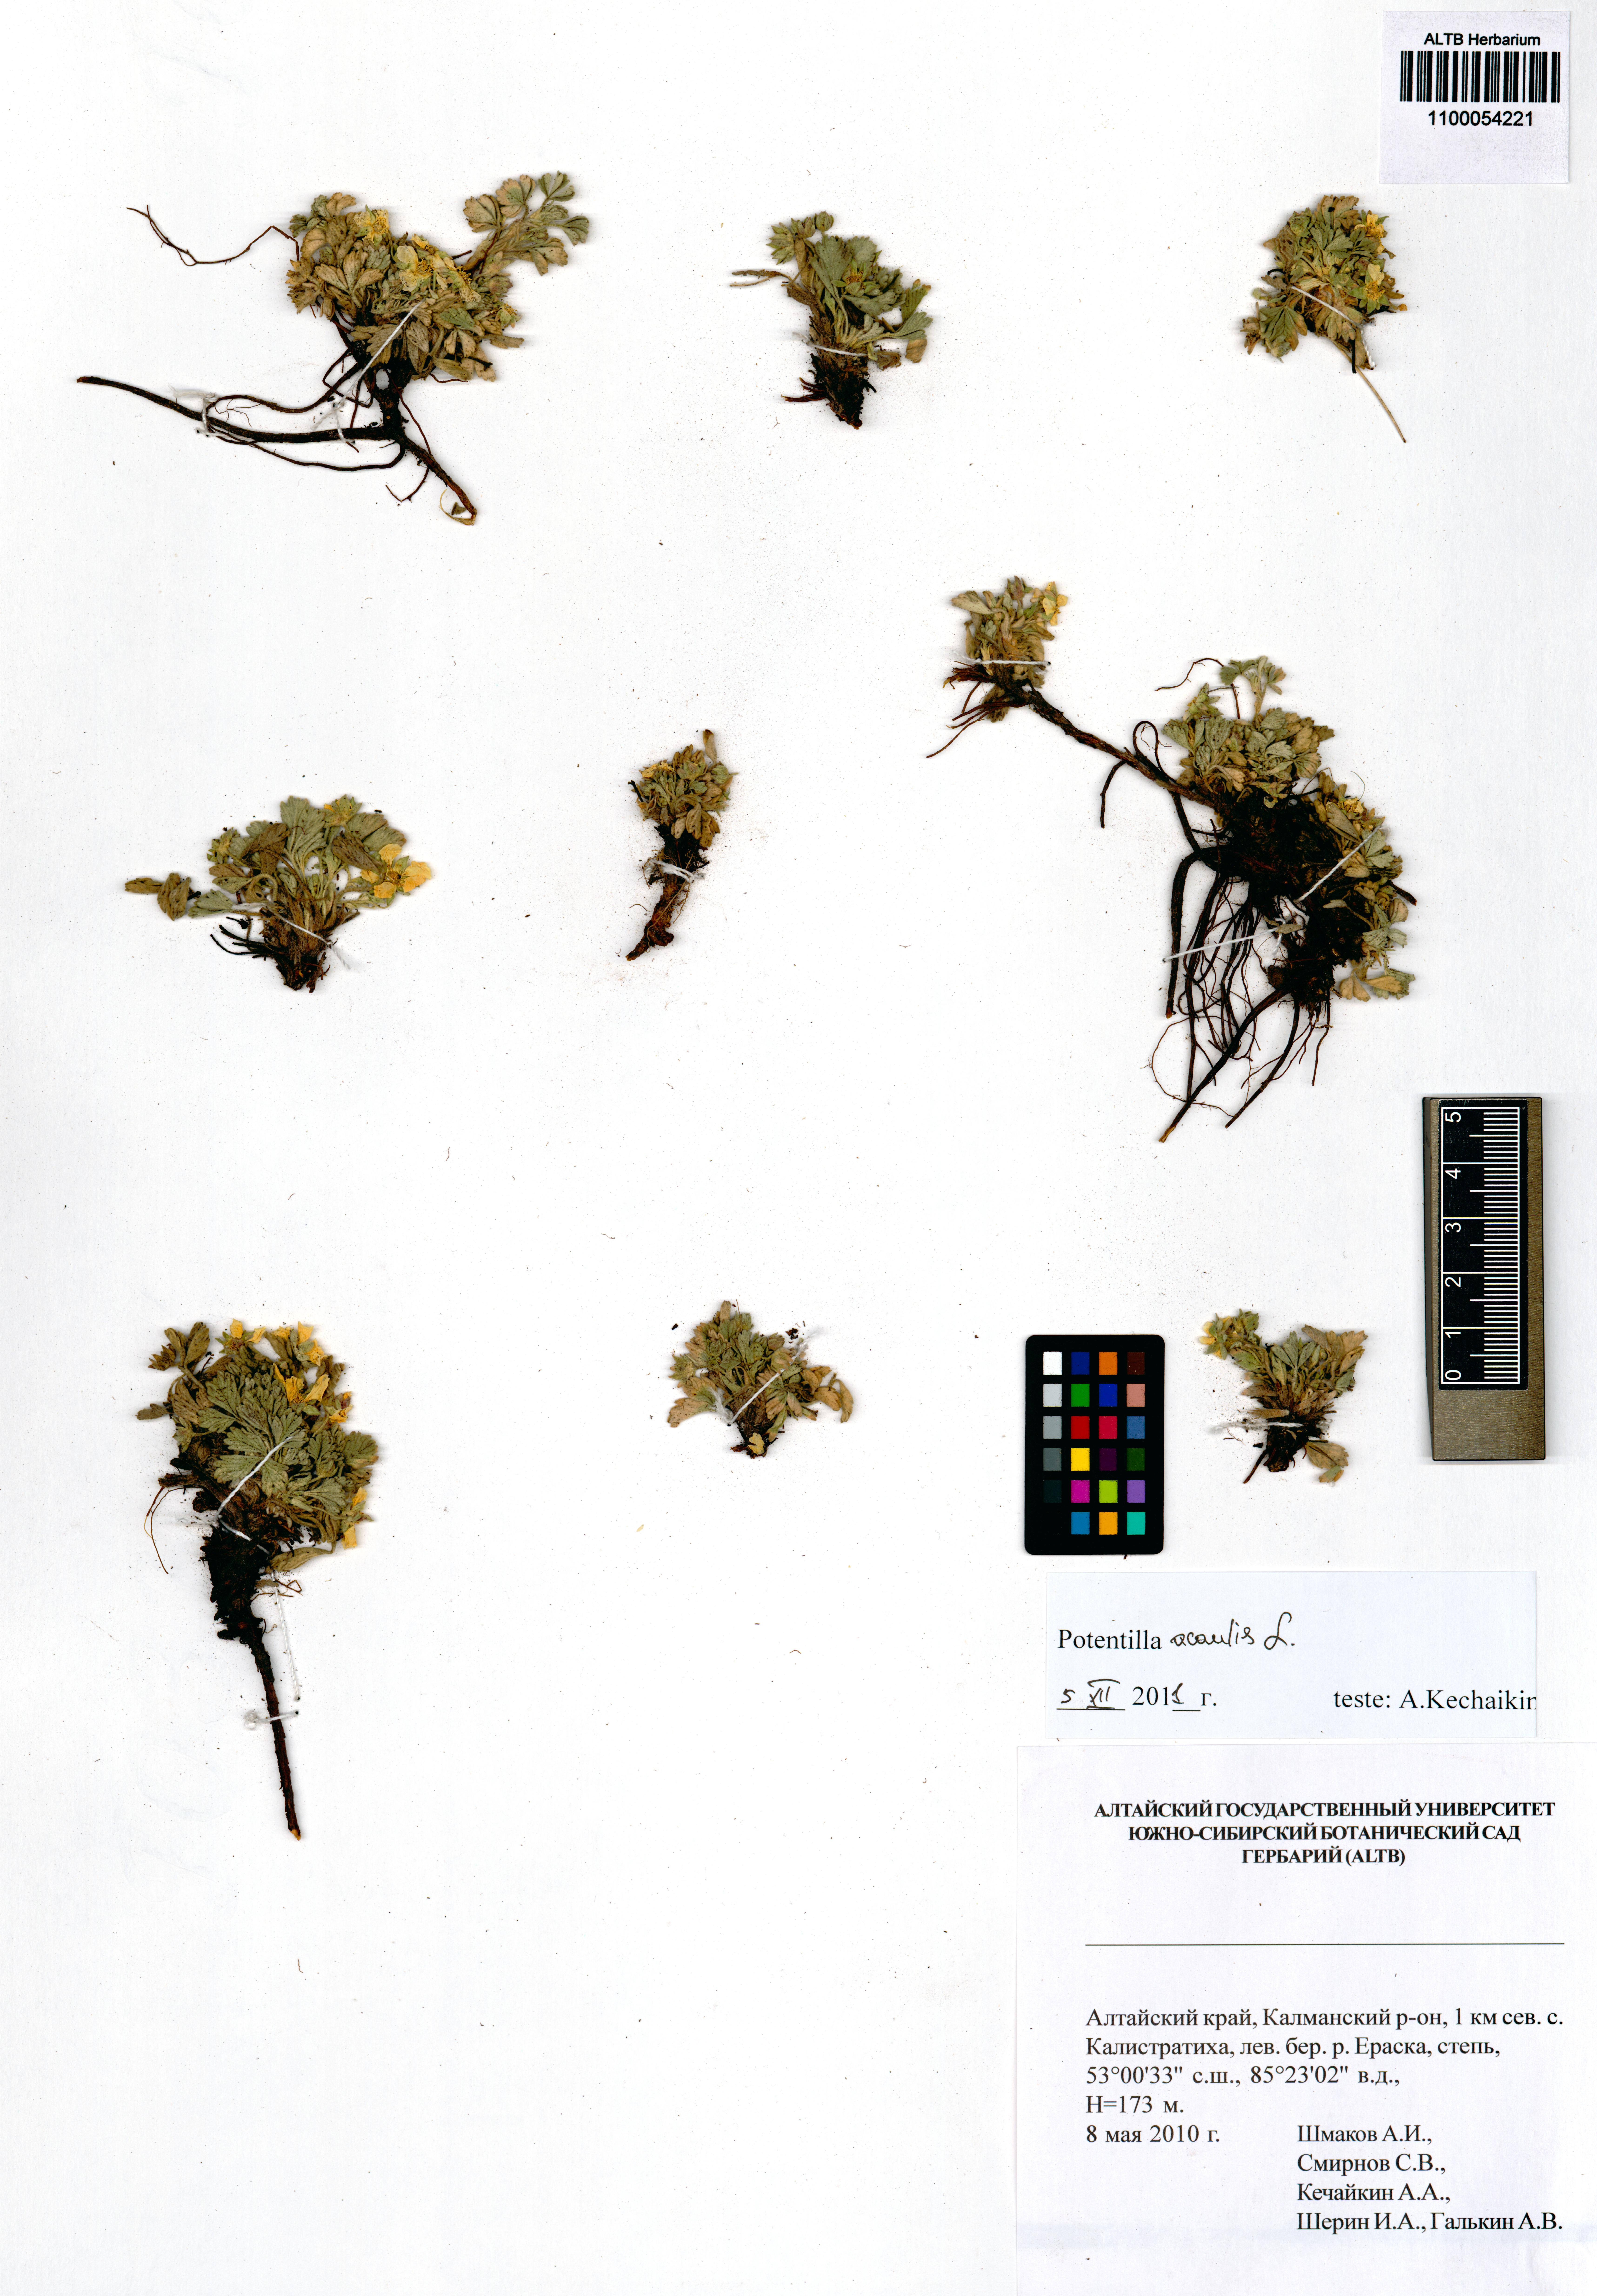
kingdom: Plantae
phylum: Tracheophyta
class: Magnoliopsida
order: Rosales
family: Rosaceae
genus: Potentilla
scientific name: Potentilla acaulis
